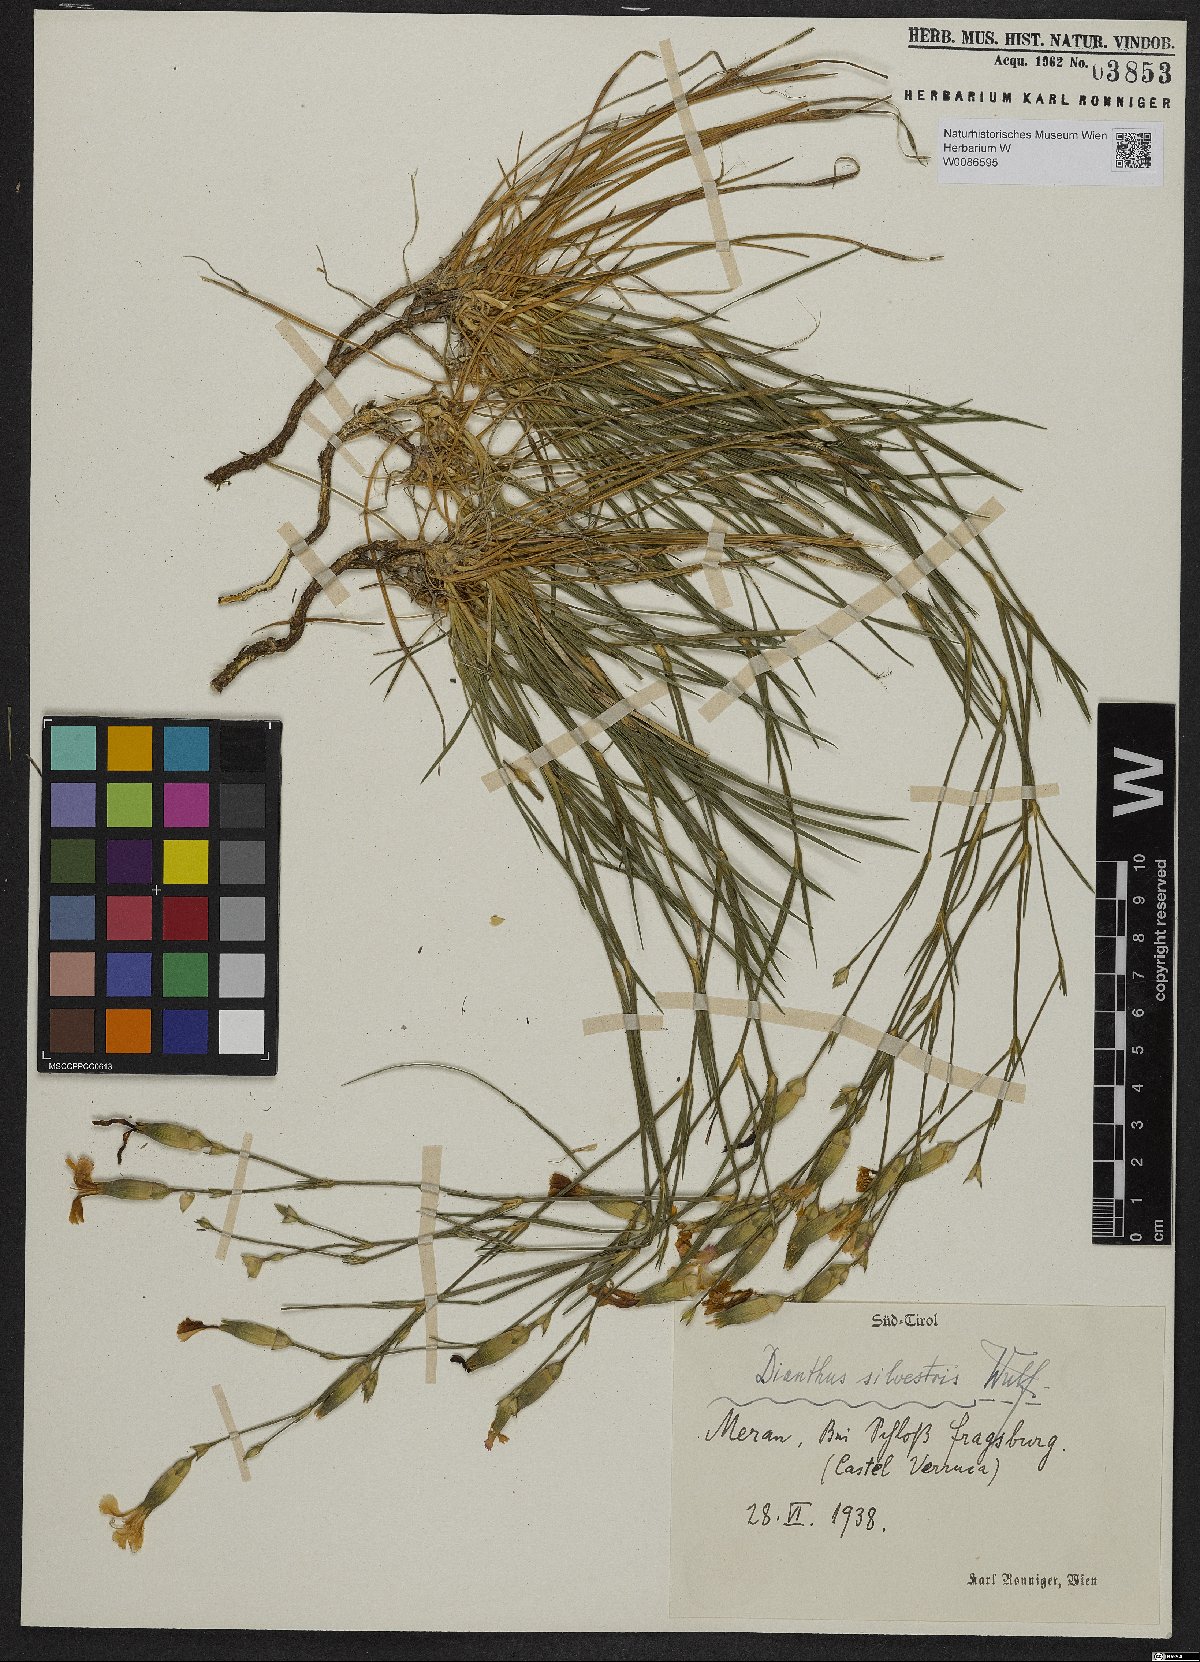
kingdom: Plantae
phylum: Tracheophyta
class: Magnoliopsida
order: Caryophyllales
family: Caryophyllaceae
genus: Dianthus
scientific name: Dianthus sylvestris
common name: Wood pink
